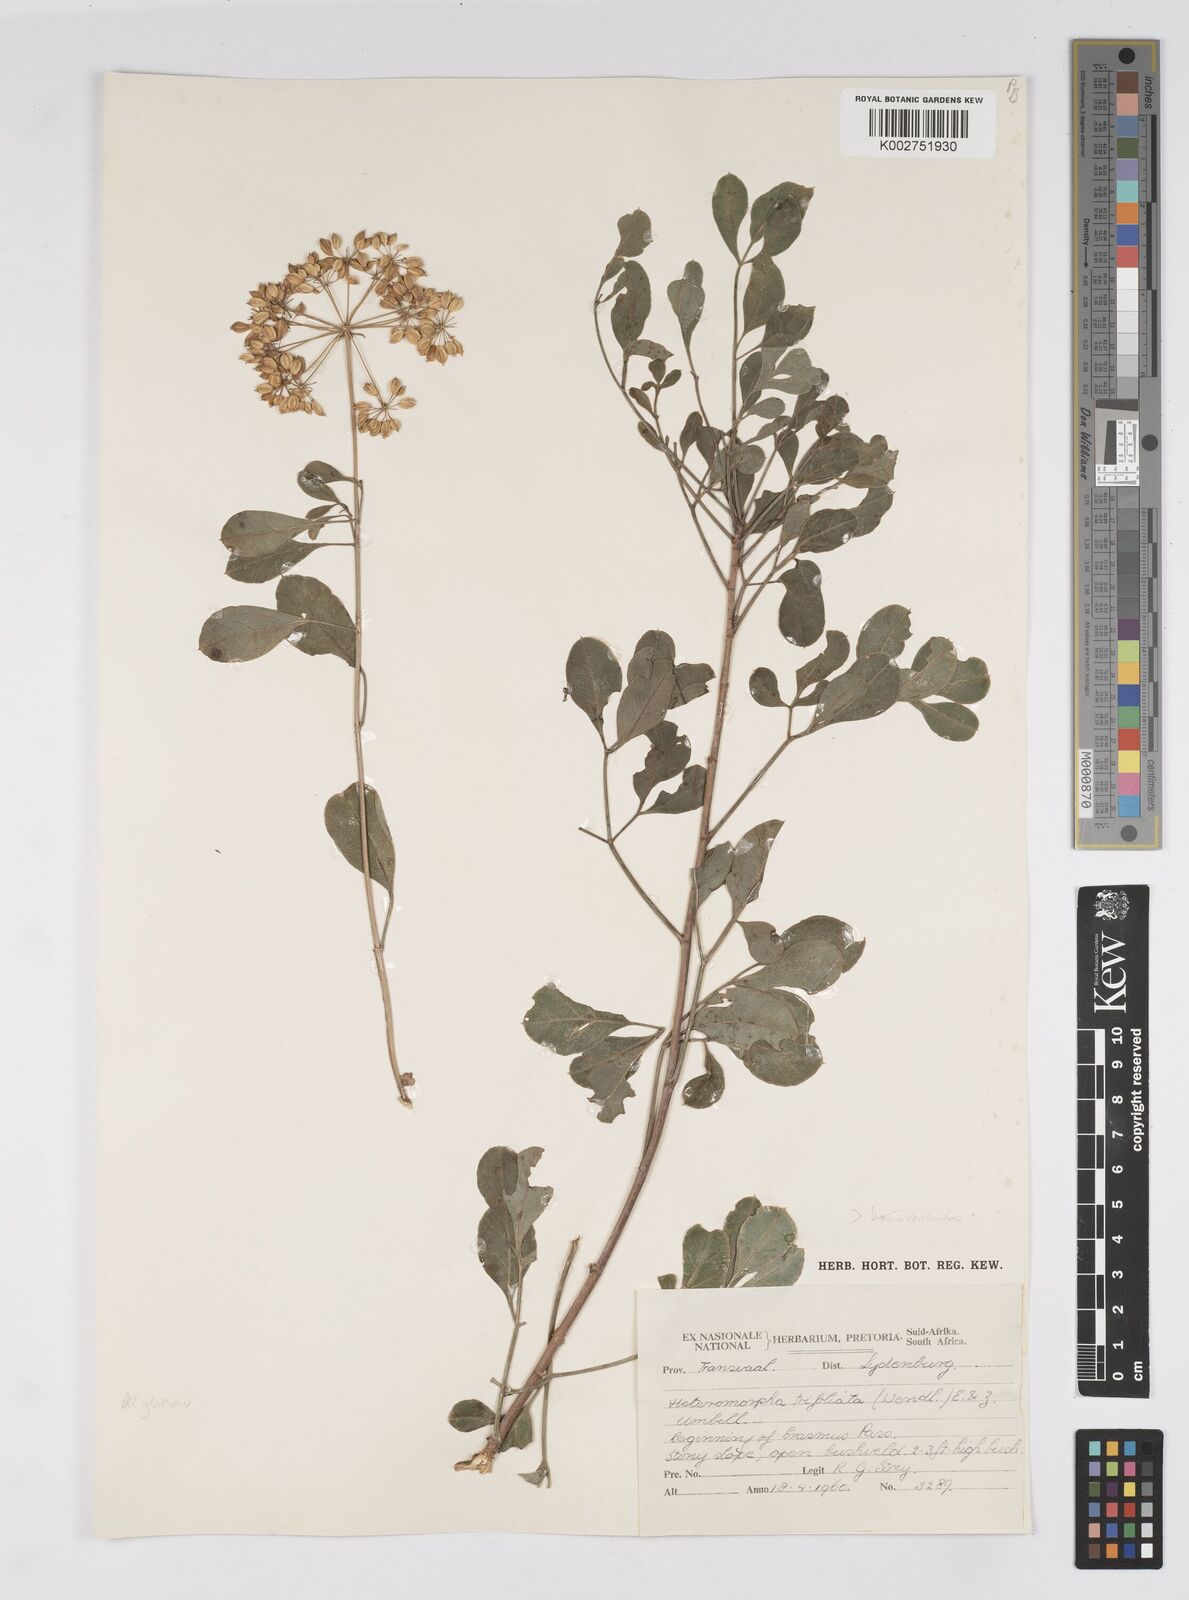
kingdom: Plantae
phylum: Tracheophyta
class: Magnoliopsida
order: Apiales
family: Apiaceae
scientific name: Apiaceae
